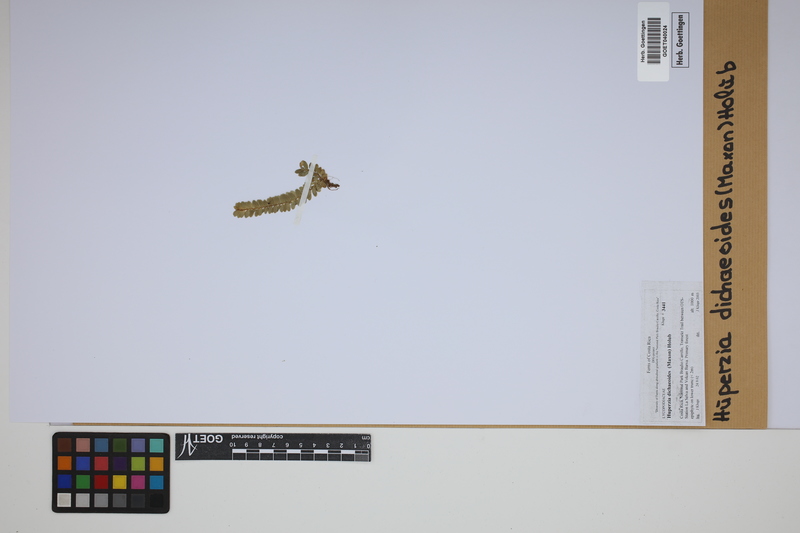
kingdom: Plantae
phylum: Tracheophyta
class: Lycopodiopsida
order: Lycopodiales
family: Lycopodiaceae
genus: Phlegmariurus
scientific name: Phlegmariurus dichaeoides
